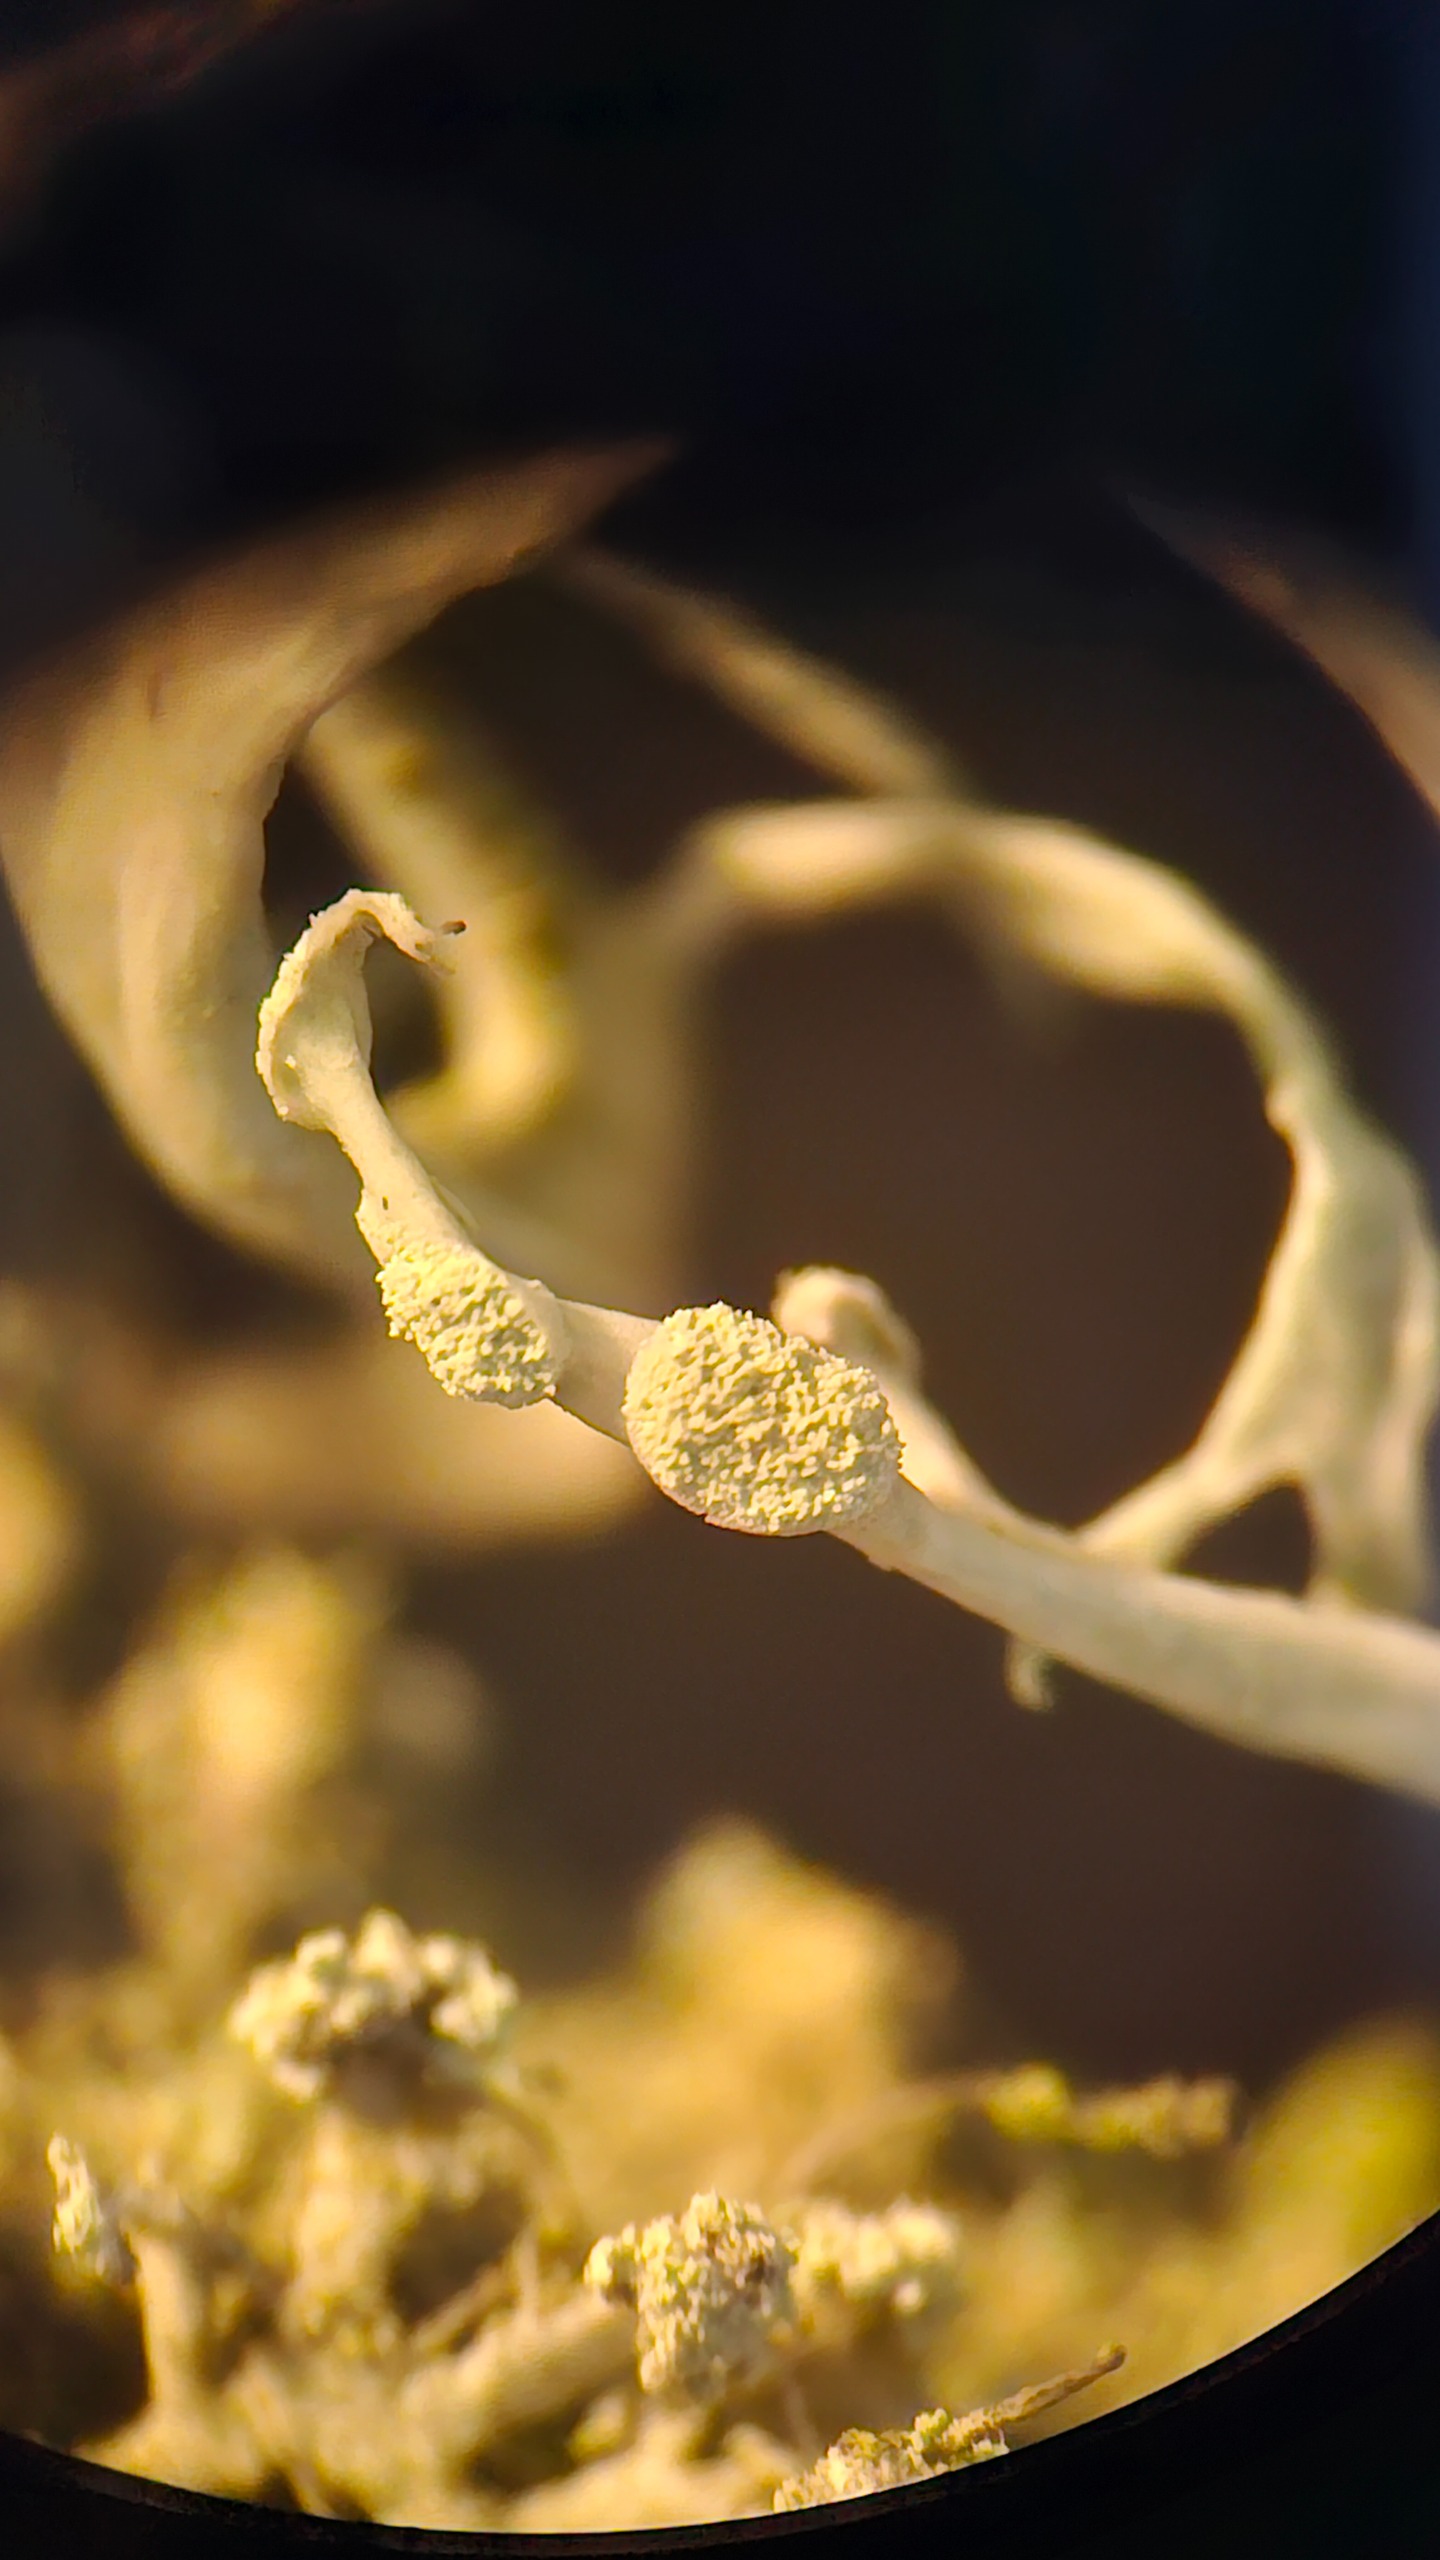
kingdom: Fungi
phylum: Ascomycota
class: Lecanoromycetes
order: Lecanorales
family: Ramalinaceae
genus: Ramalina
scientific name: Ramalina farinacea
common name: Melet grenlav
